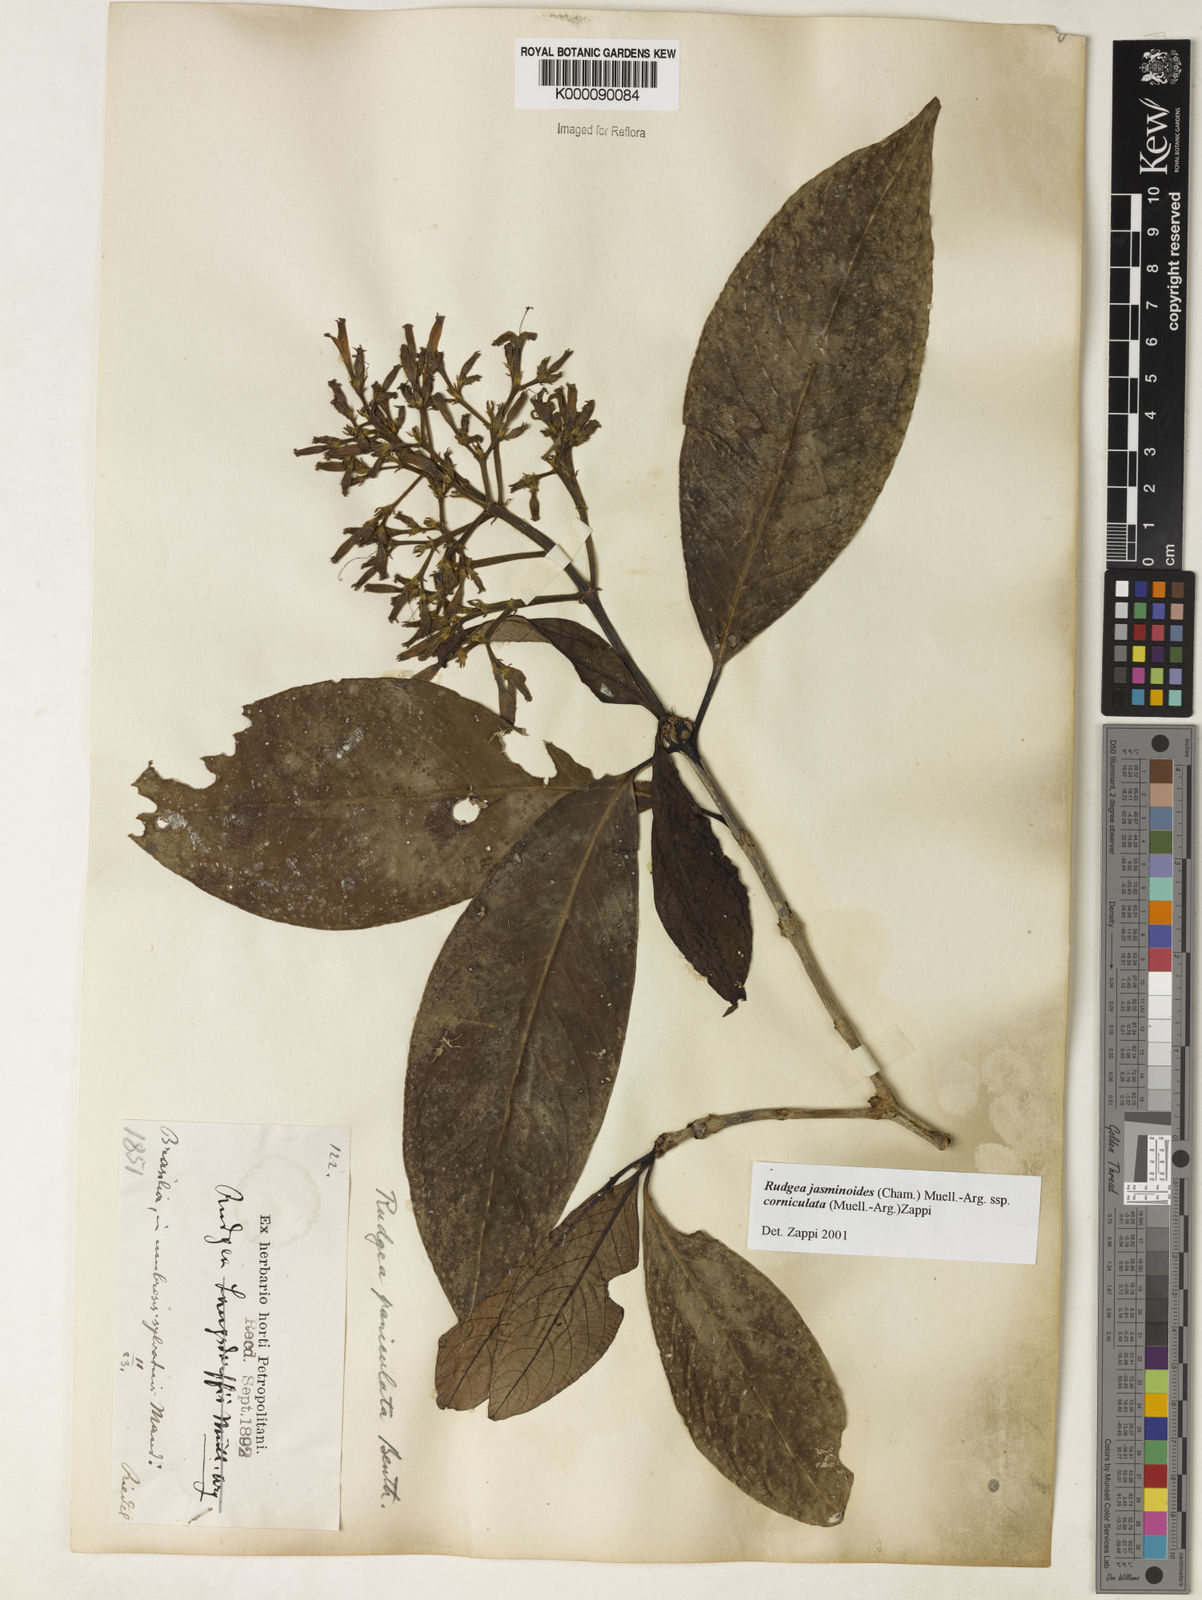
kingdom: Plantae
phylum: Tracheophyta
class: Magnoliopsida
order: Gentianales
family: Rubiaceae
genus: Rudgea
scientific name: Rudgea jasminoides
